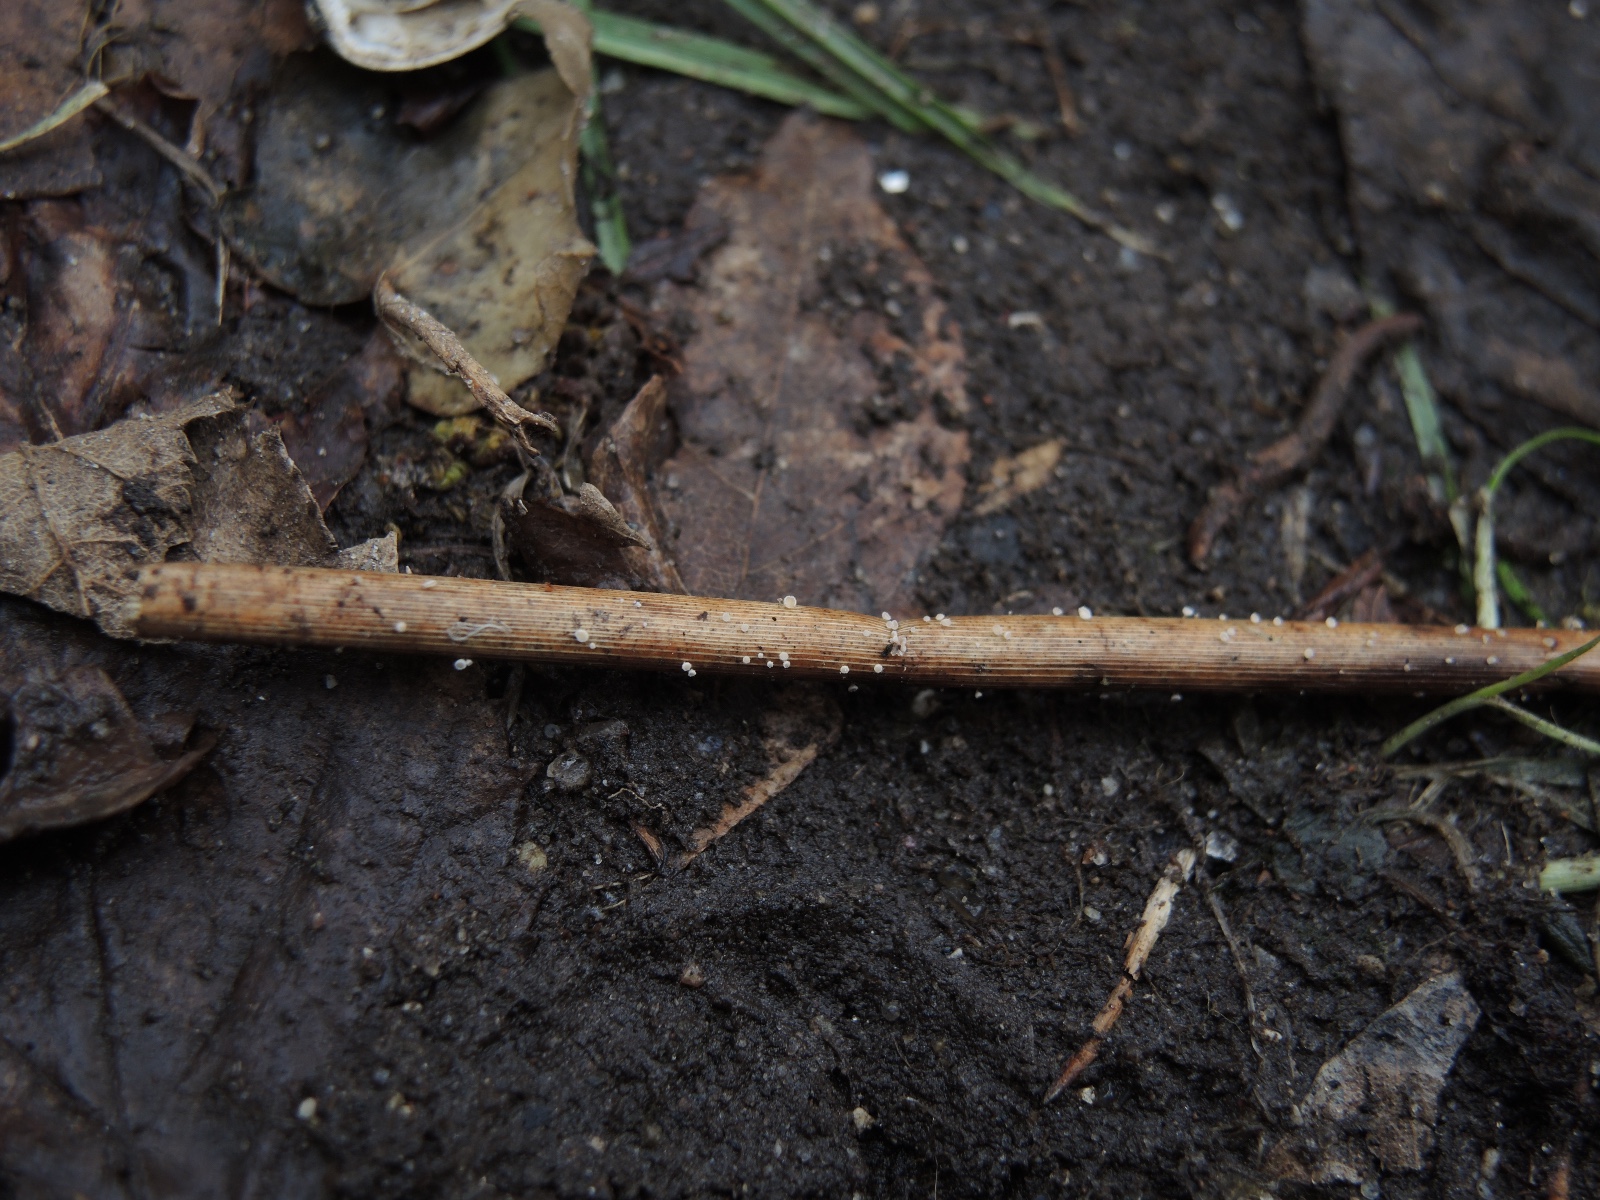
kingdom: Fungi
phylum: Ascomycota
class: Leotiomycetes
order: Helotiales
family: Lachnaceae
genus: Lachnum
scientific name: Lachnum apalum
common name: siv-frynseskive
